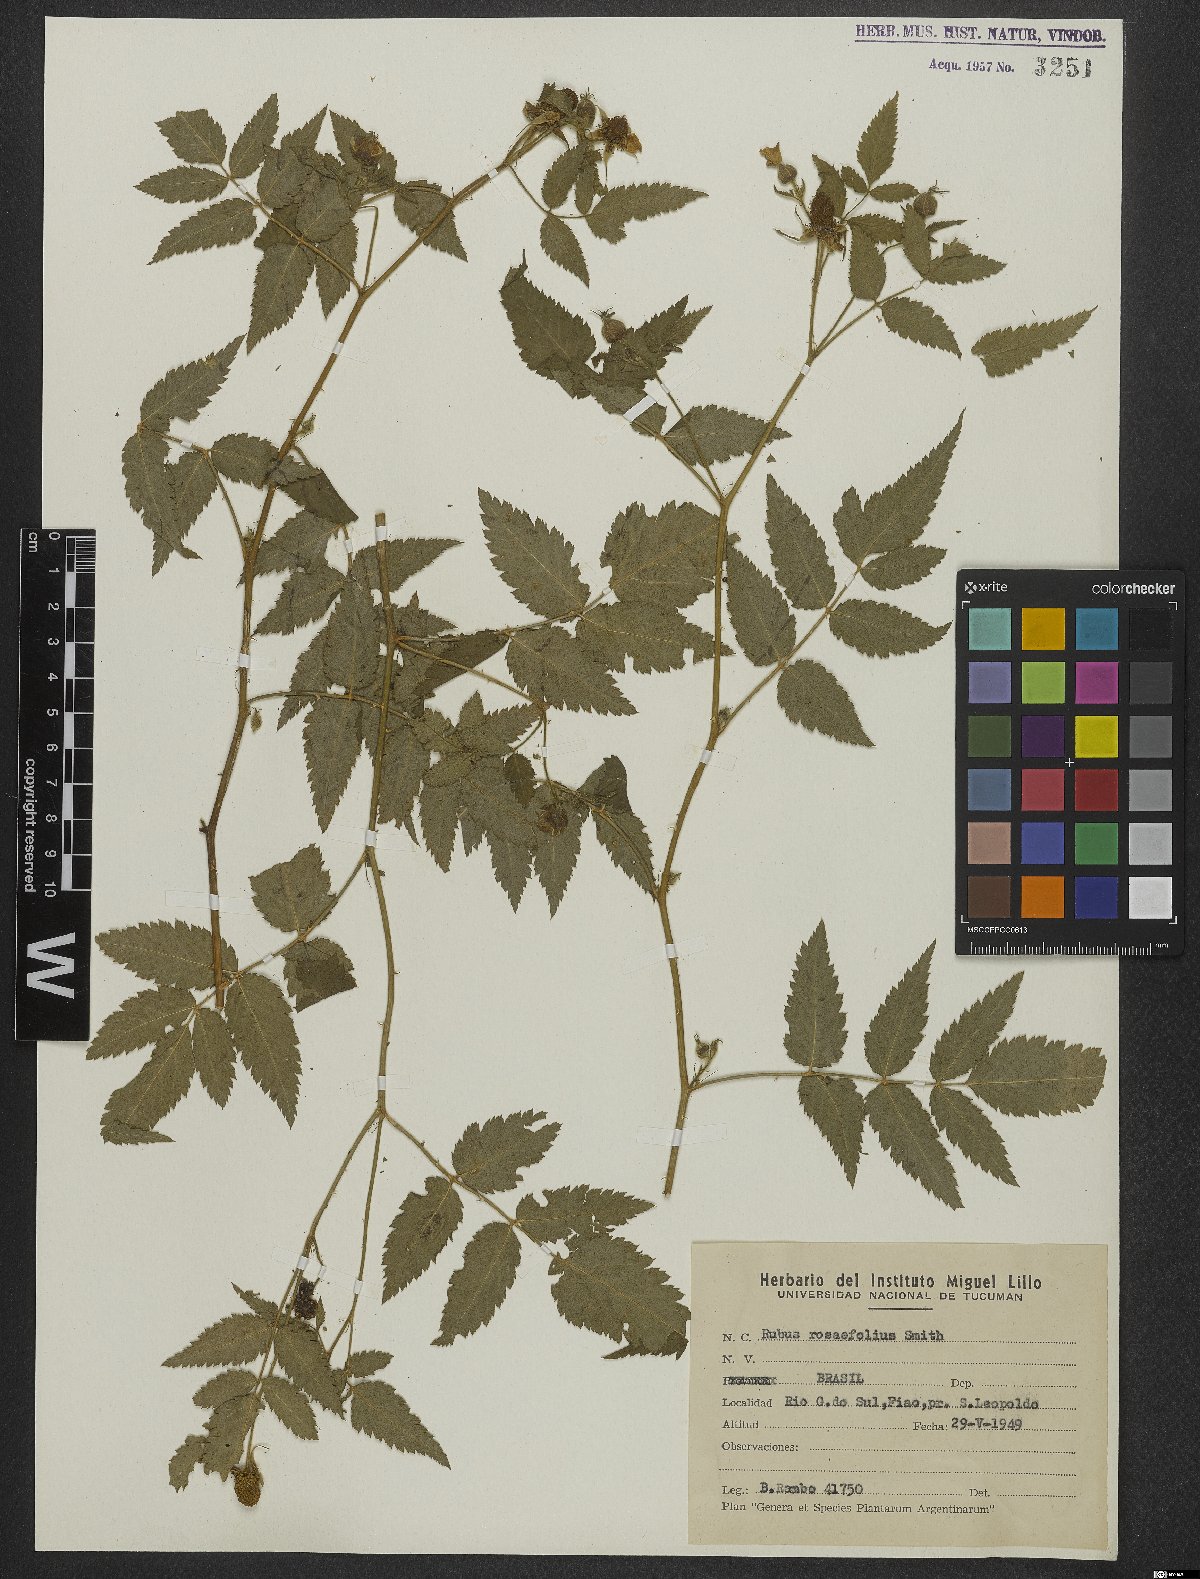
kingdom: Plantae
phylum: Tracheophyta
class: Magnoliopsida
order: Rosales
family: Rosaceae
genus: Prunus
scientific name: Prunus myrtifolia
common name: West indies cherry
